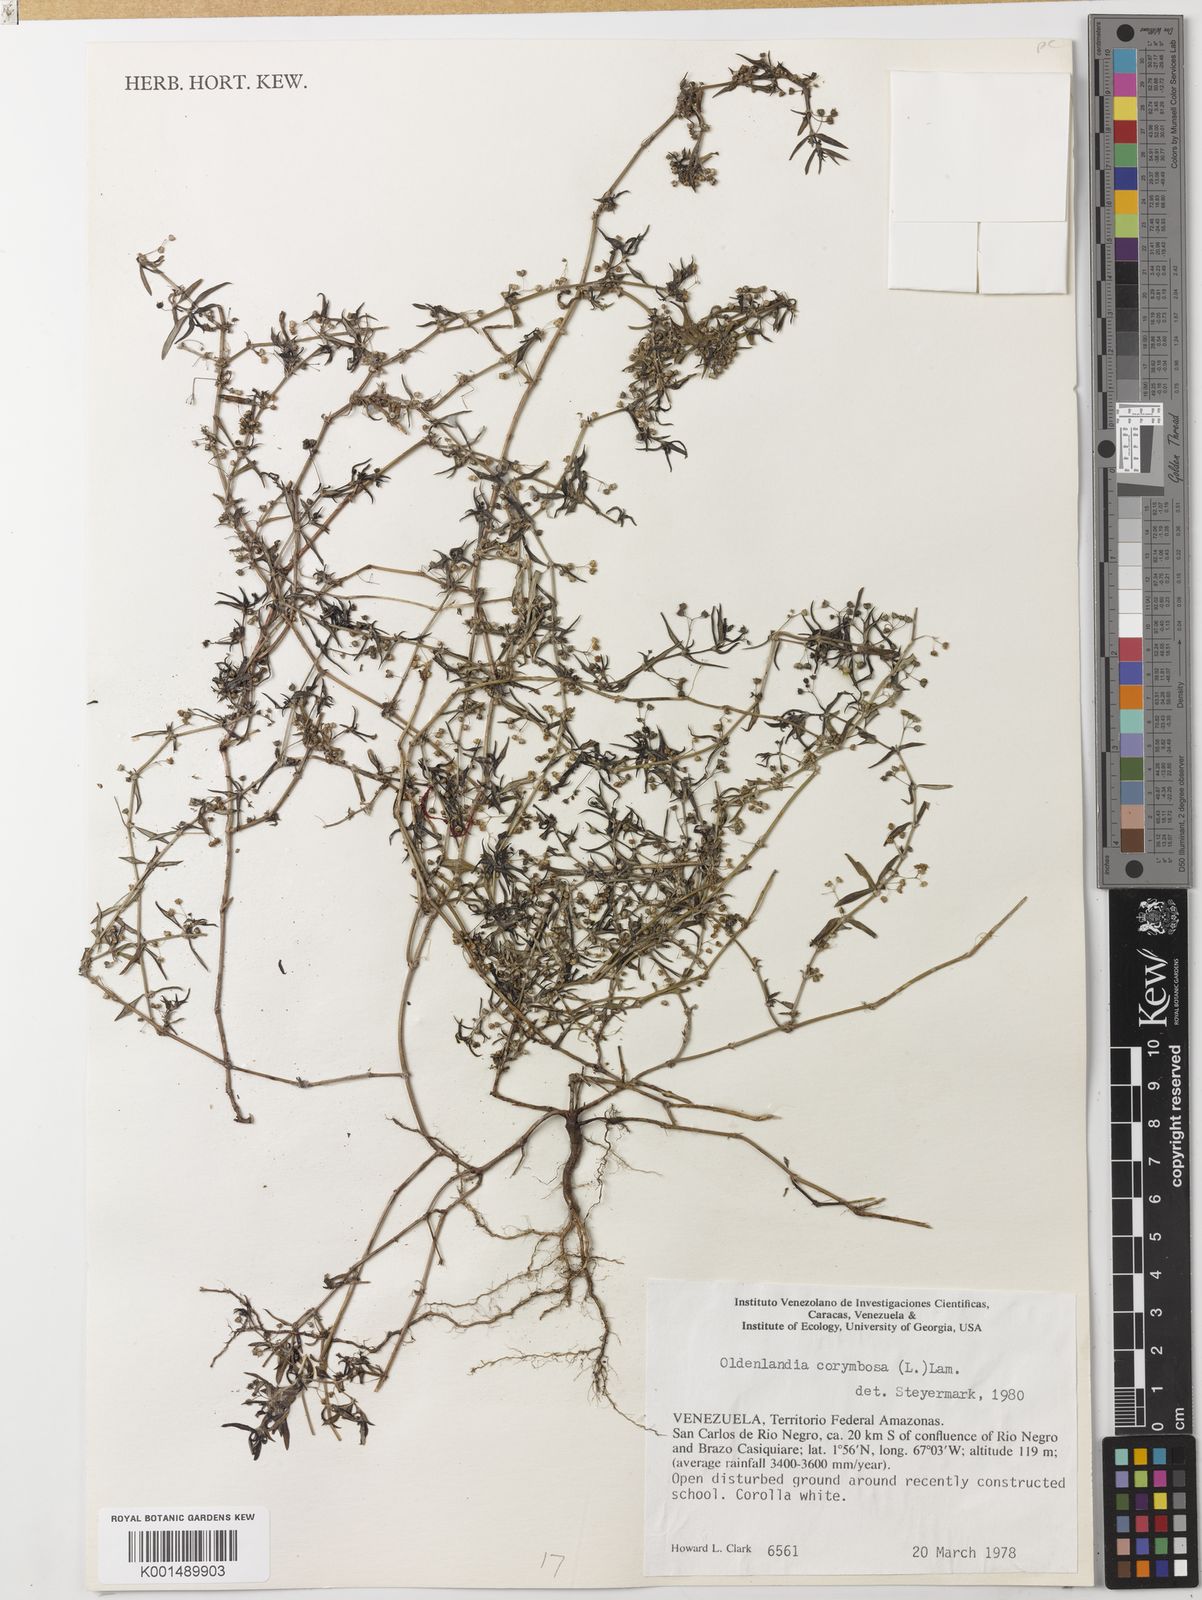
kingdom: Plantae
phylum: Tracheophyta
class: Magnoliopsida
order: Gentianales
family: Rubiaceae
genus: Oldenlandia
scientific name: Oldenlandia corymbosa
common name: Flat-top mille graines
